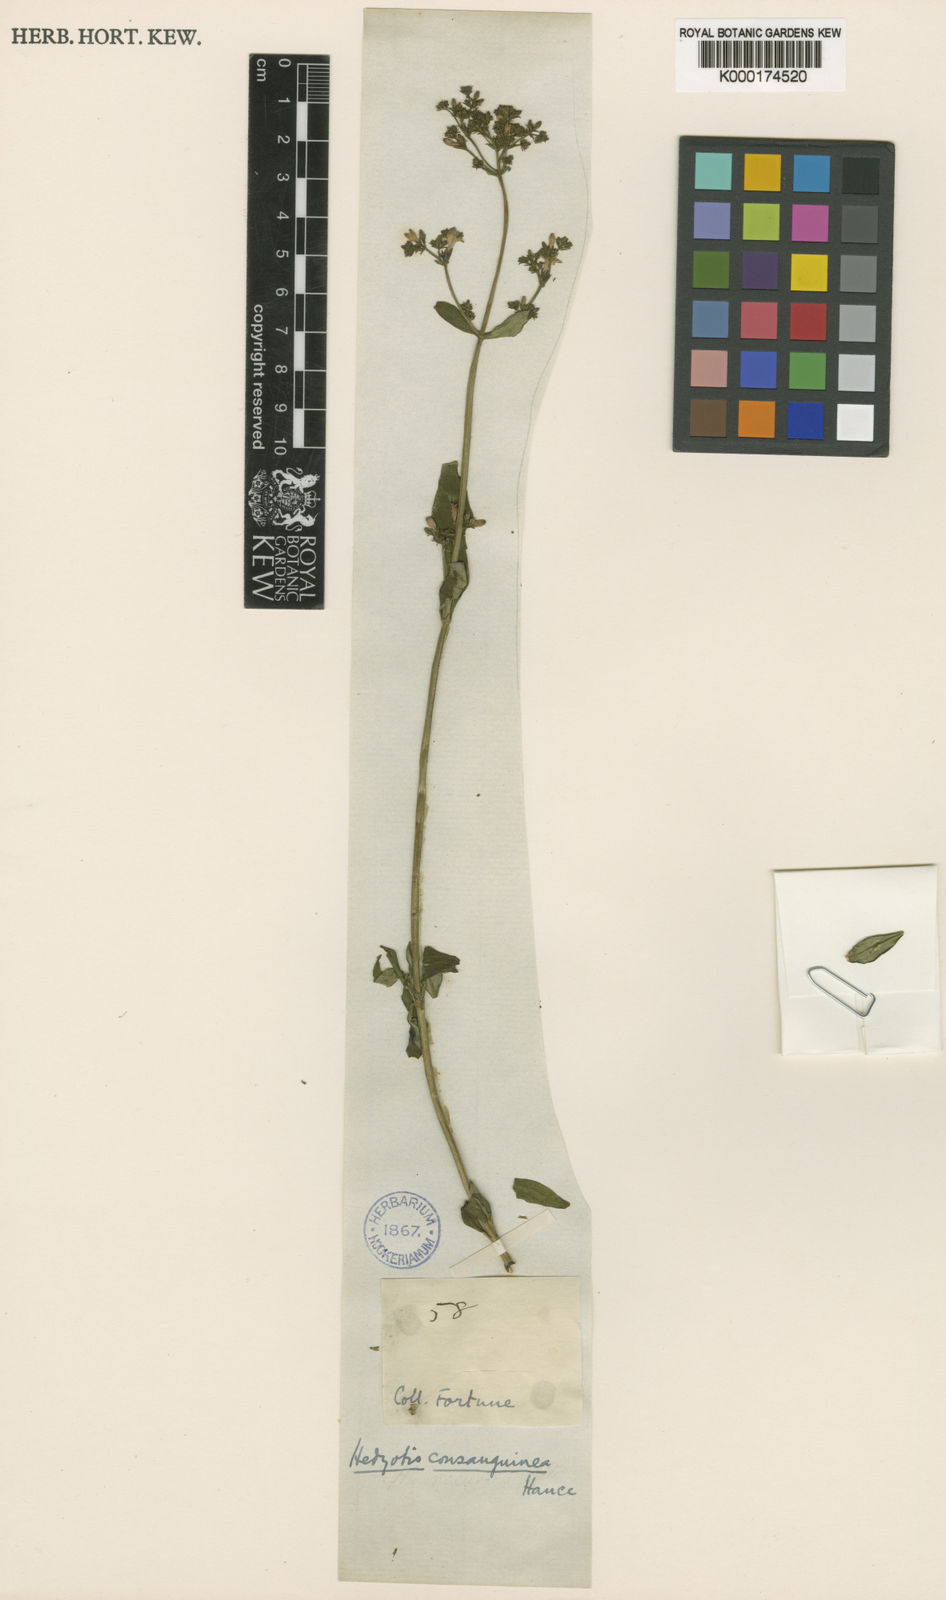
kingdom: Plantae
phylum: Tracheophyta
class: Magnoliopsida
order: Gentianales
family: Rubiaceae
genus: Hedyotis
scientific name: Hedyotis lancea
